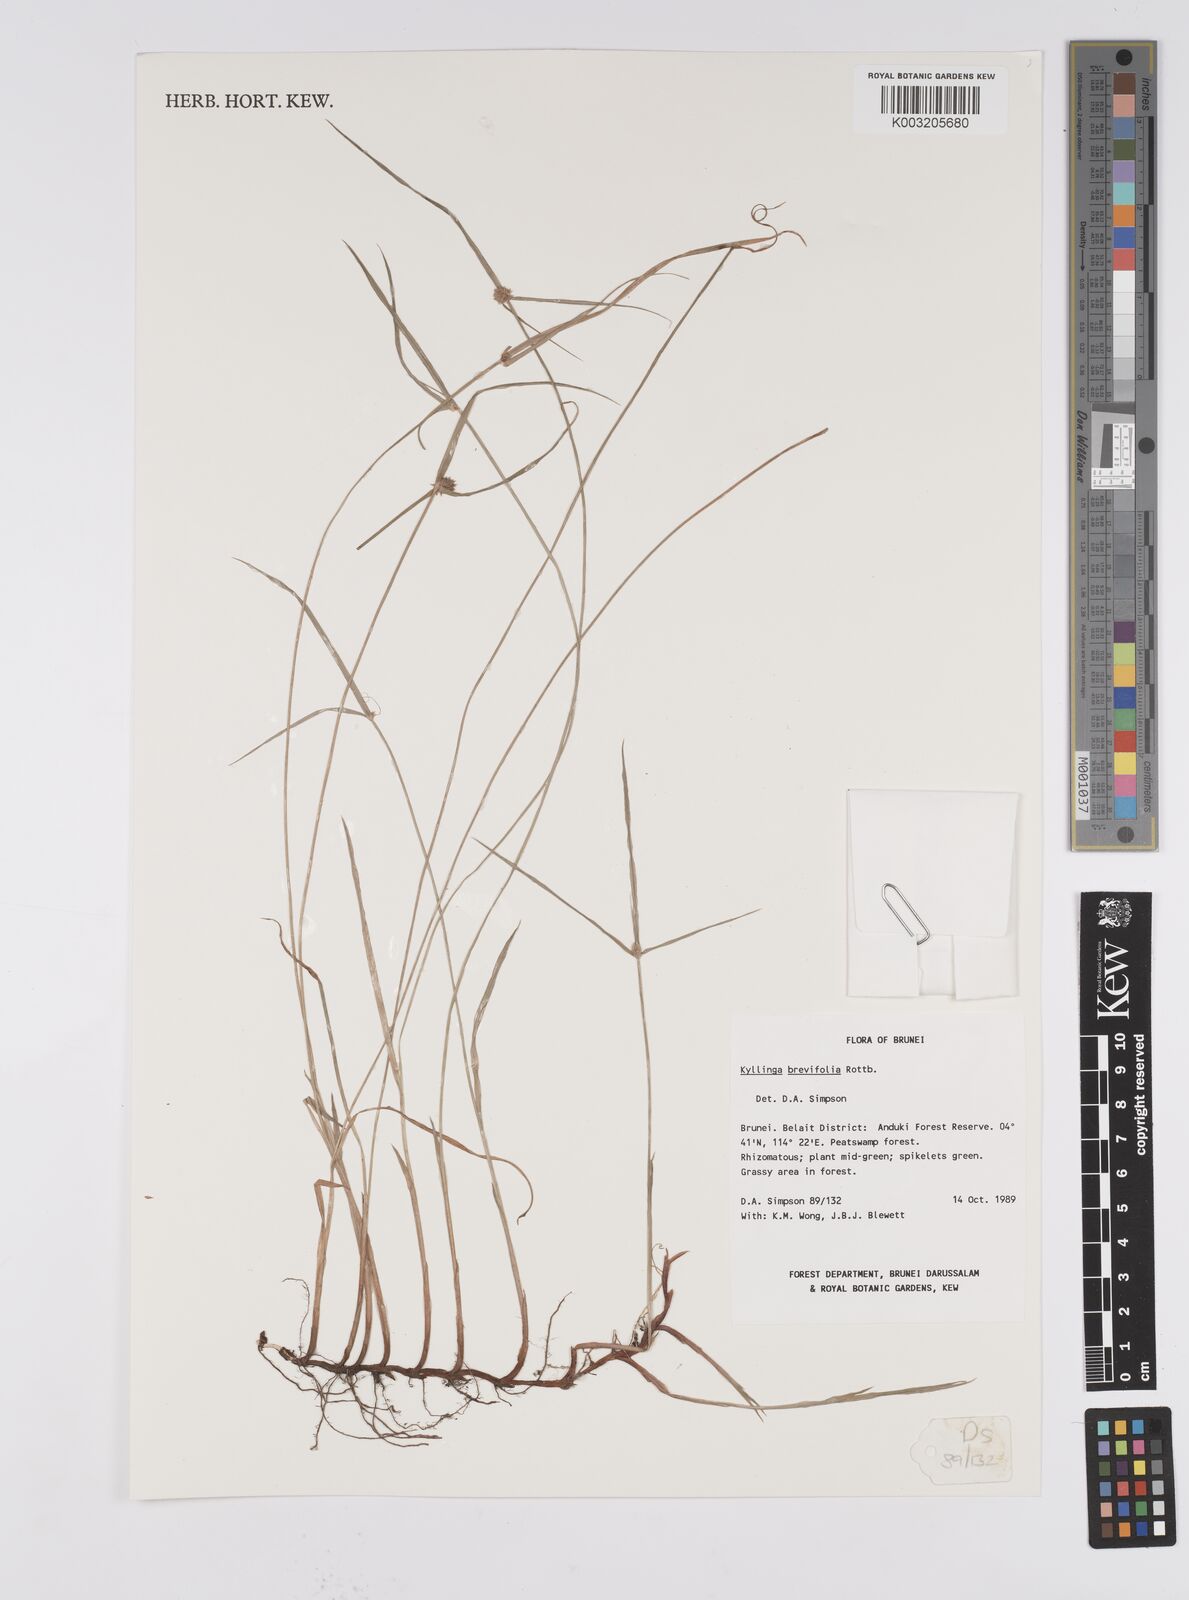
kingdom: Plantae
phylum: Tracheophyta
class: Liliopsida
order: Poales
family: Cyperaceae
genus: Cyperus
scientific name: Cyperus brevifolius
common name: Globe kyllinga
